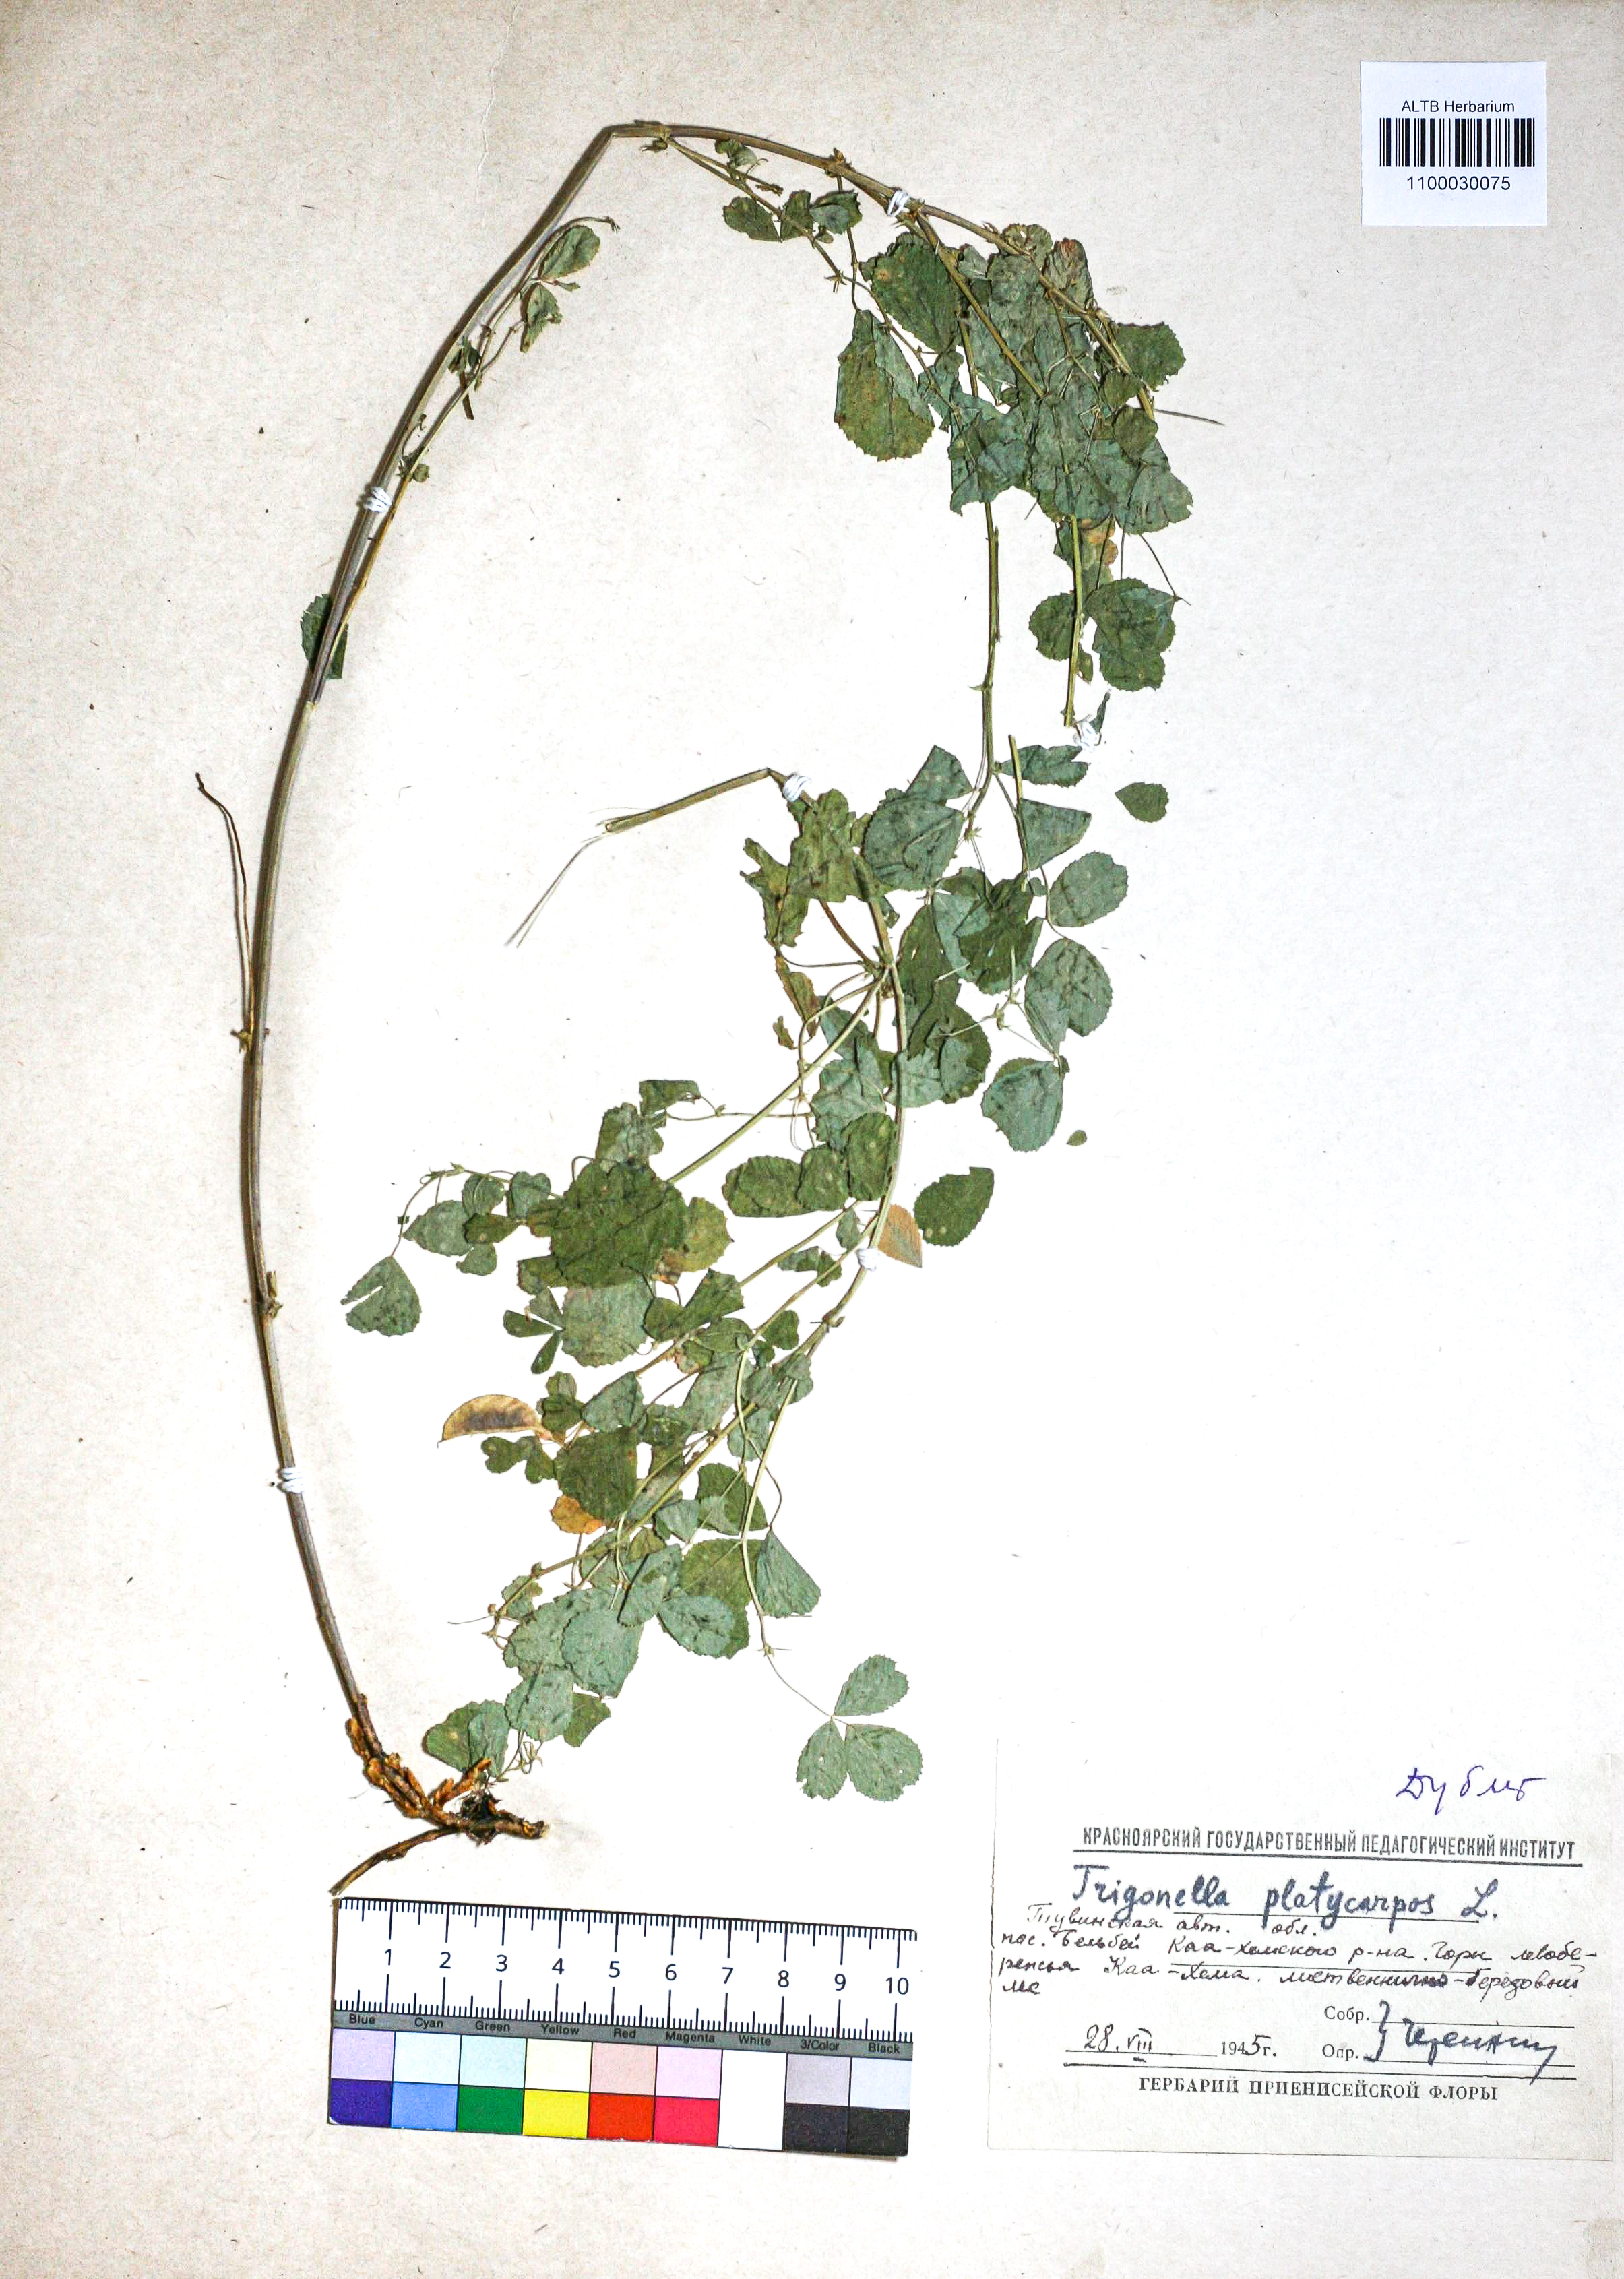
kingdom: Plantae
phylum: Tracheophyta
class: Magnoliopsida
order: Fabales
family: Fabaceae
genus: Medicago
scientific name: Medicago platycarpos
